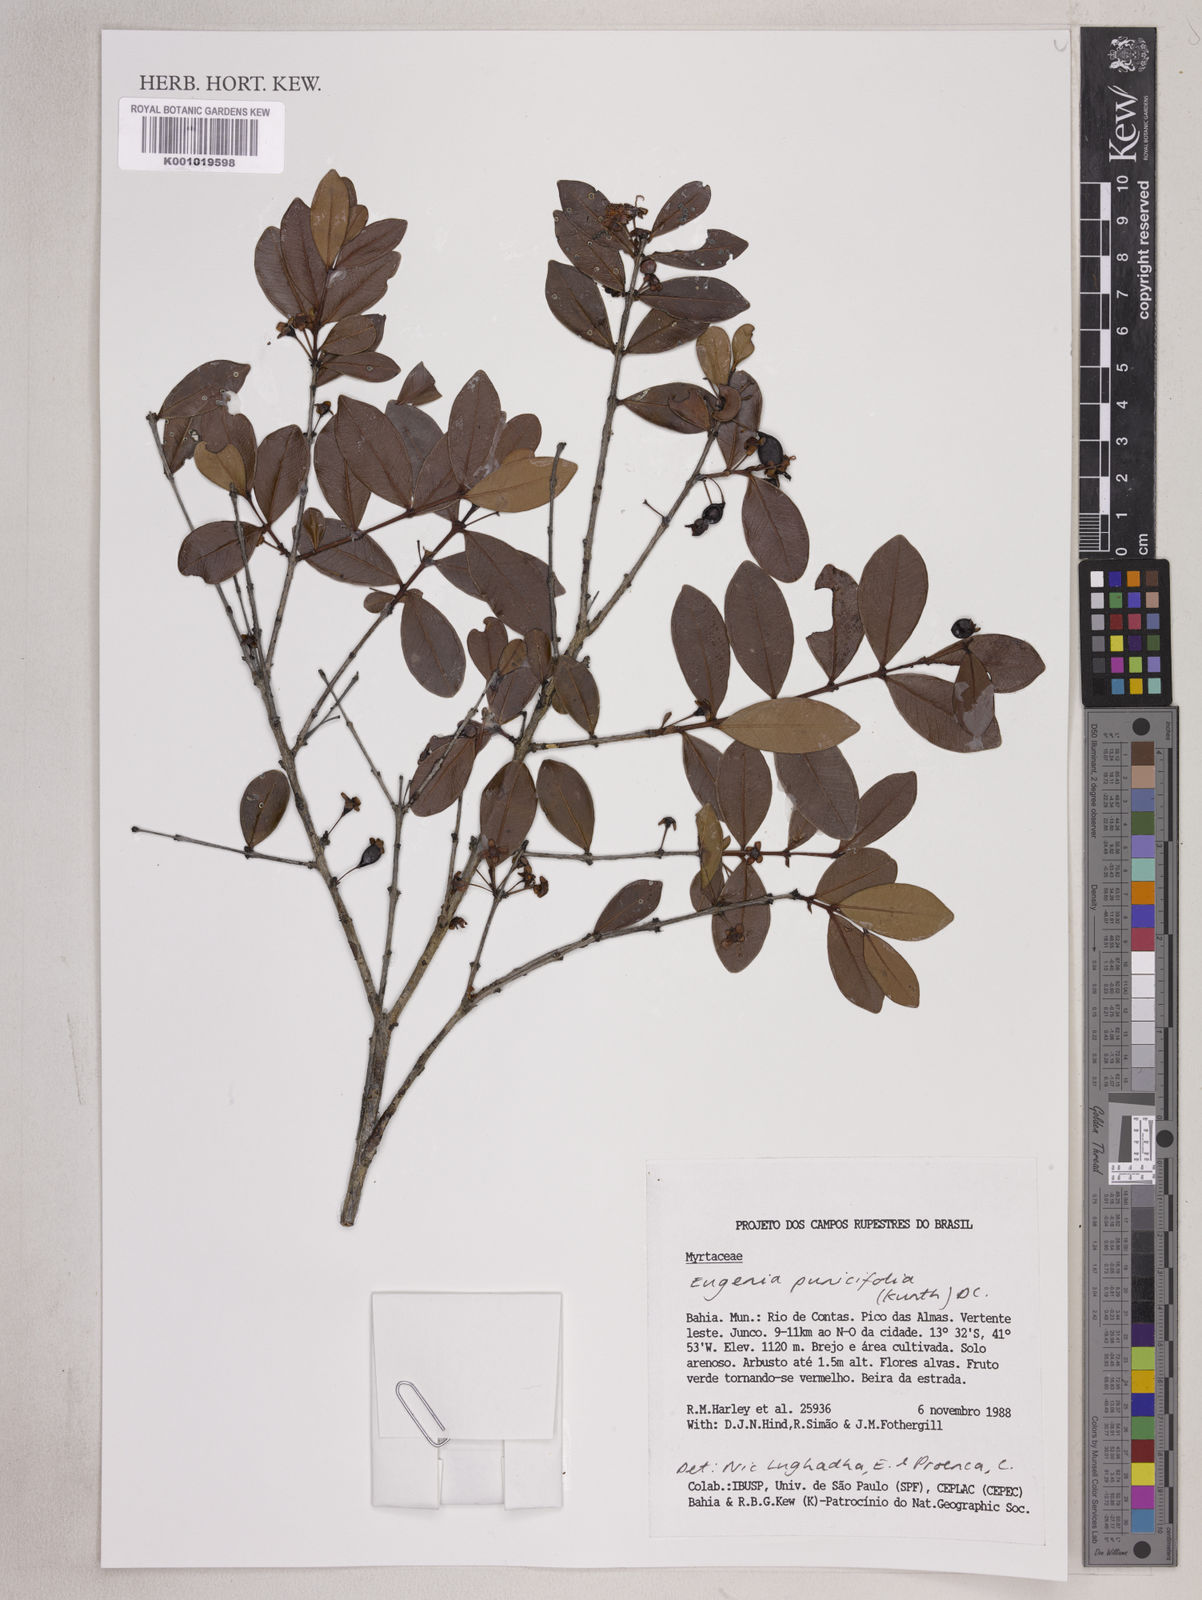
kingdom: Plantae
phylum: Tracheophyta
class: Magnoliopsida
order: Myrtales
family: Myrtaceae
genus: Eugenia
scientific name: Eugenia punicifolia
